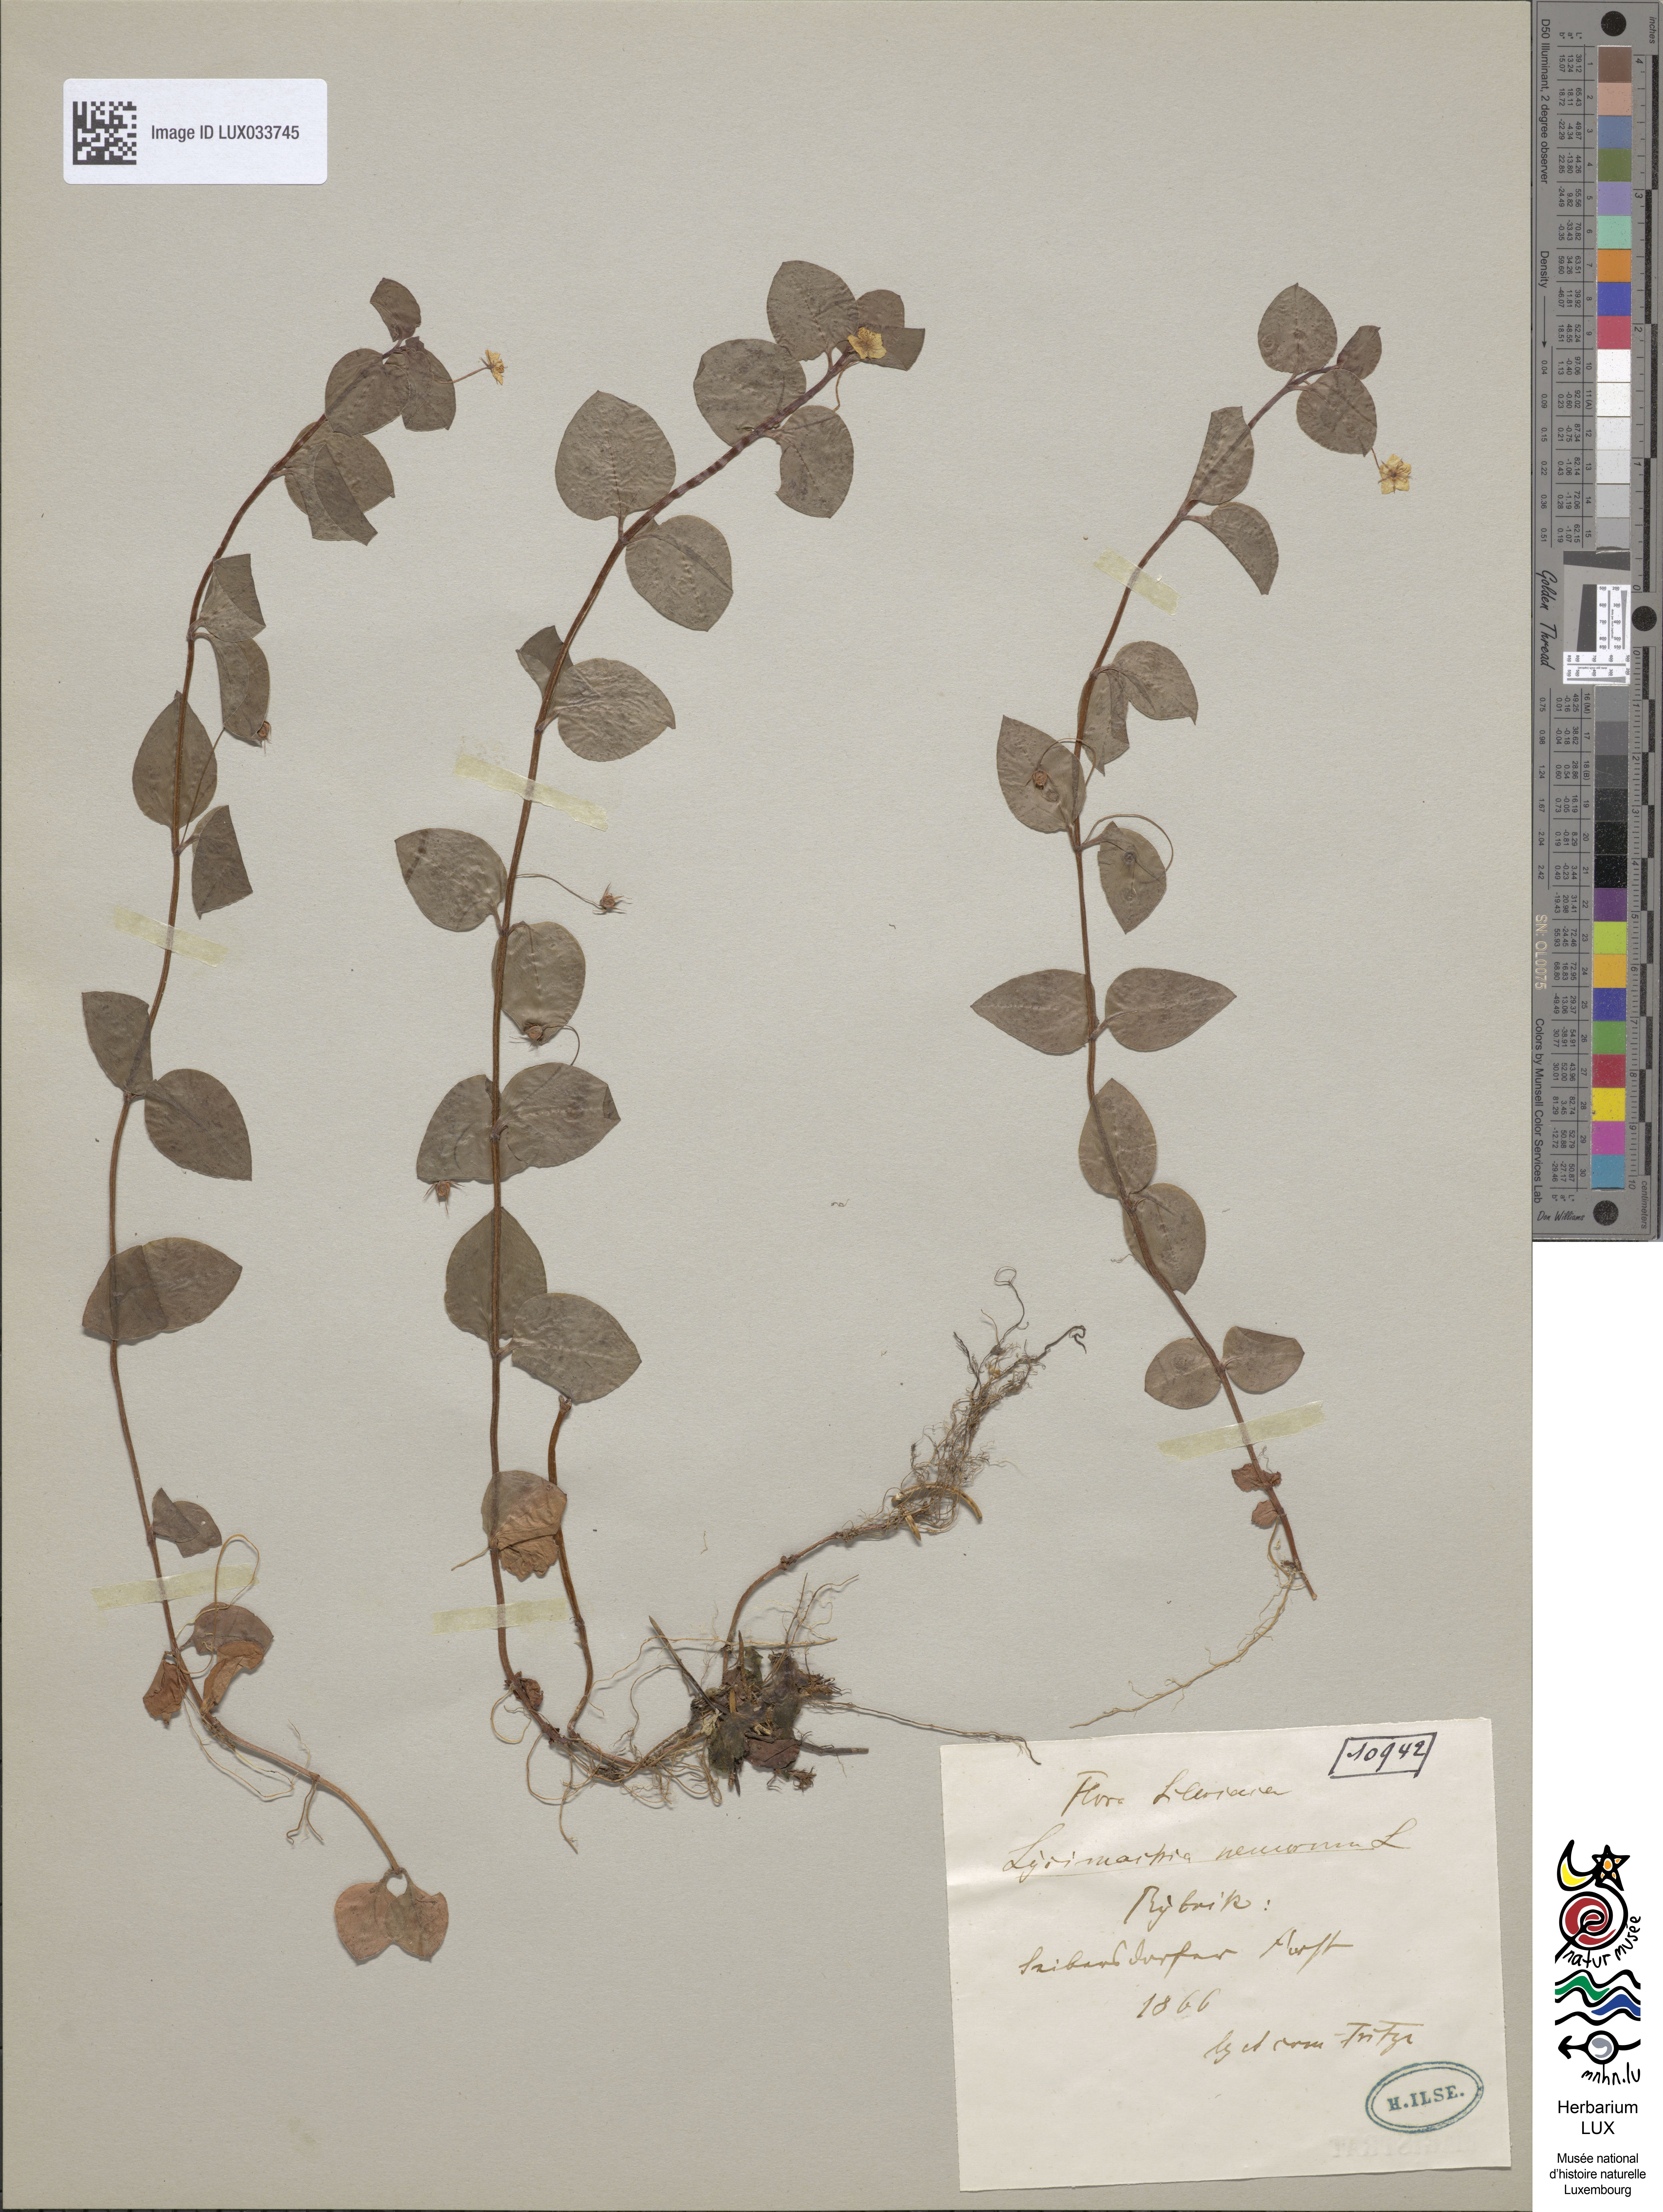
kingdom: Plantae
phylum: Tracheophyta
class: Magnoliopsida
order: Ericales
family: Primulaceae
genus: Lysimachia
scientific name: Lysimachia nemorum
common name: Yellow pimpernel
